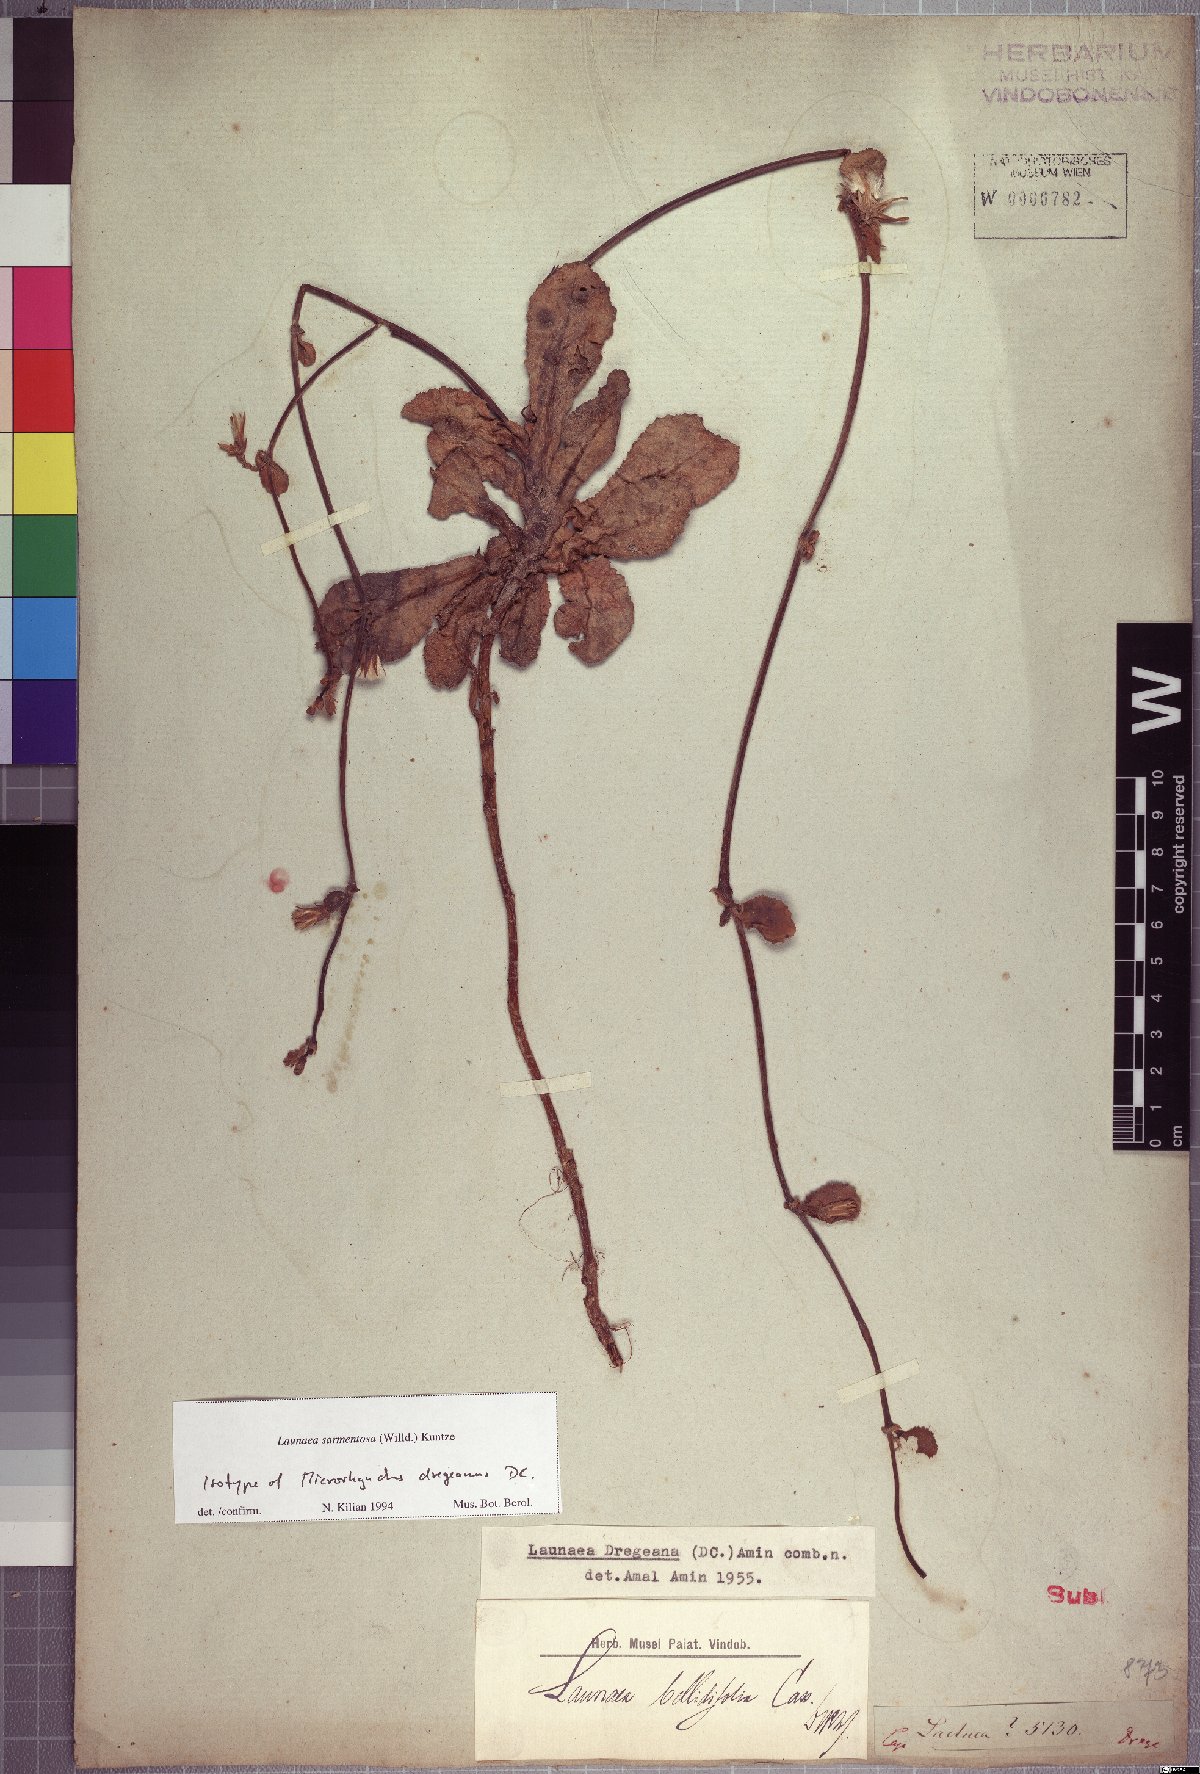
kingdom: Plantae
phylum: Tracheophyta
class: Magnoliopsida
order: Asterales
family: Asteraceae
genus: Launaea
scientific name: Launaea sarmentosa
